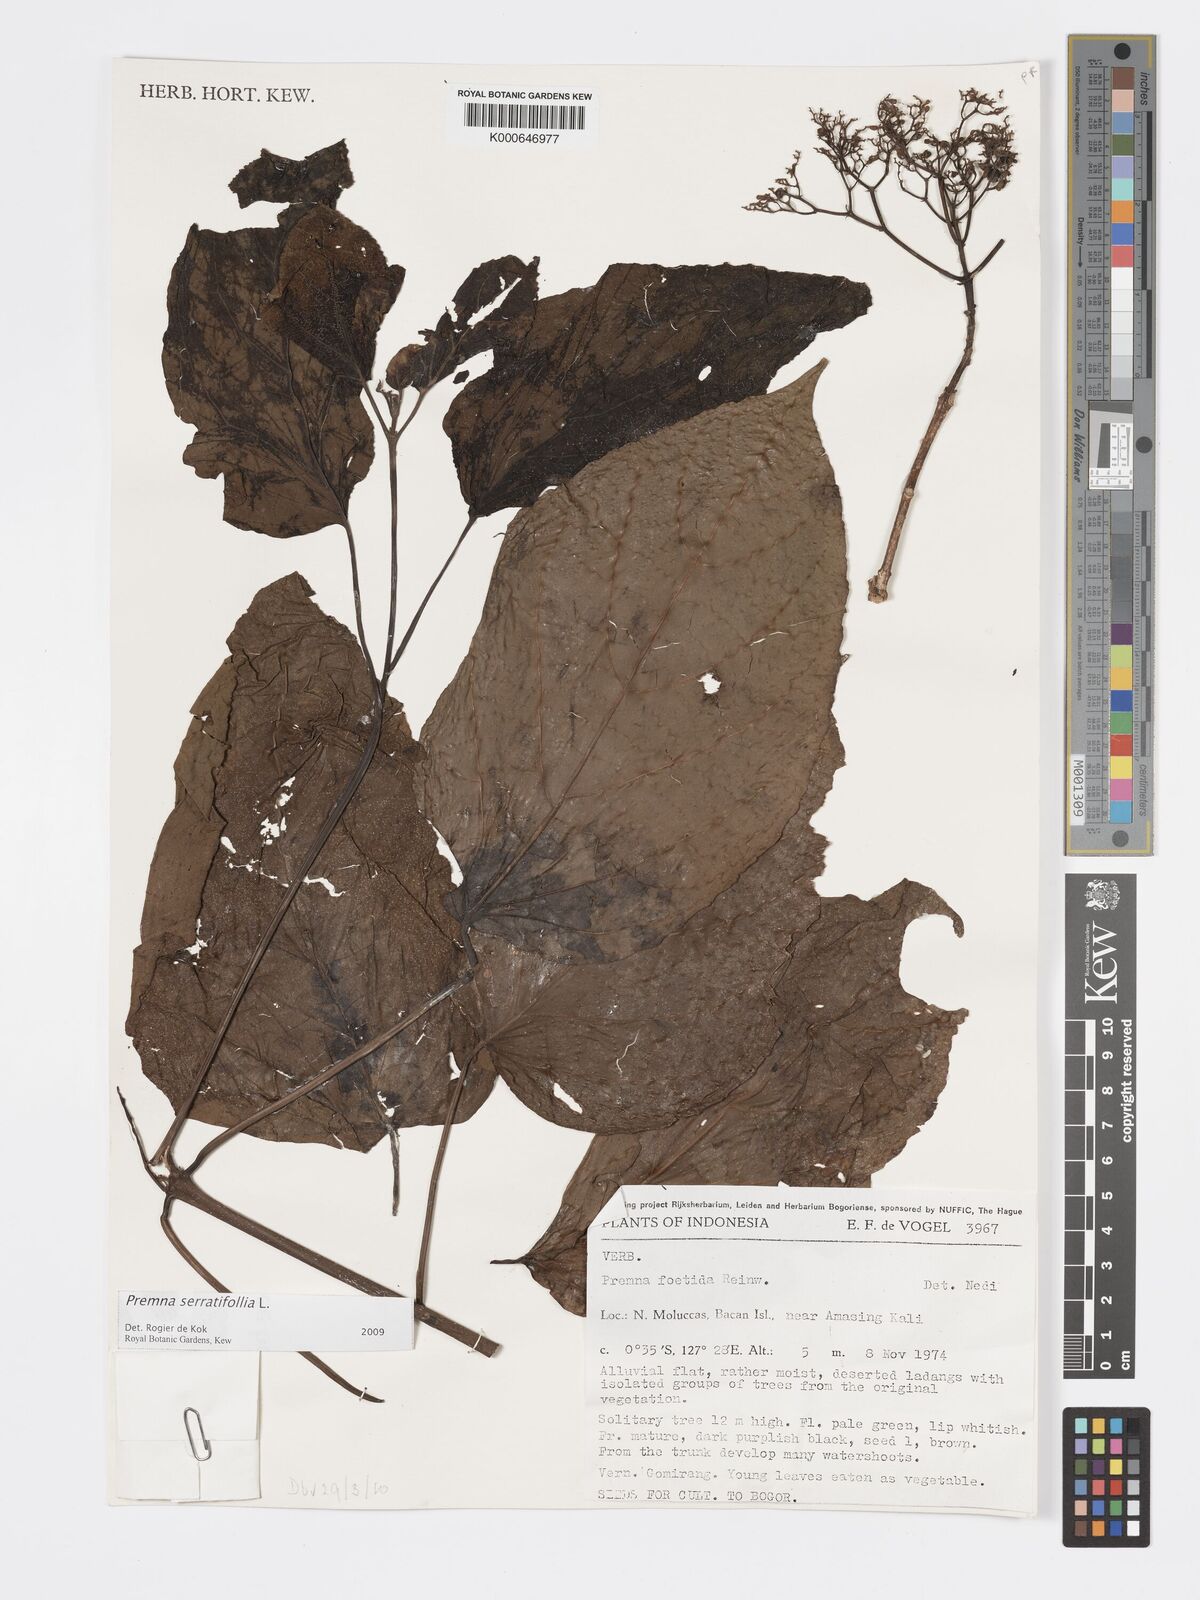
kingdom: Plantae
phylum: Tracheophyta
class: Magnoliopsida
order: Lamiales
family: Lamiaceae
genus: Premna
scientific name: Premna serratifolia
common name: Bastard guelder
